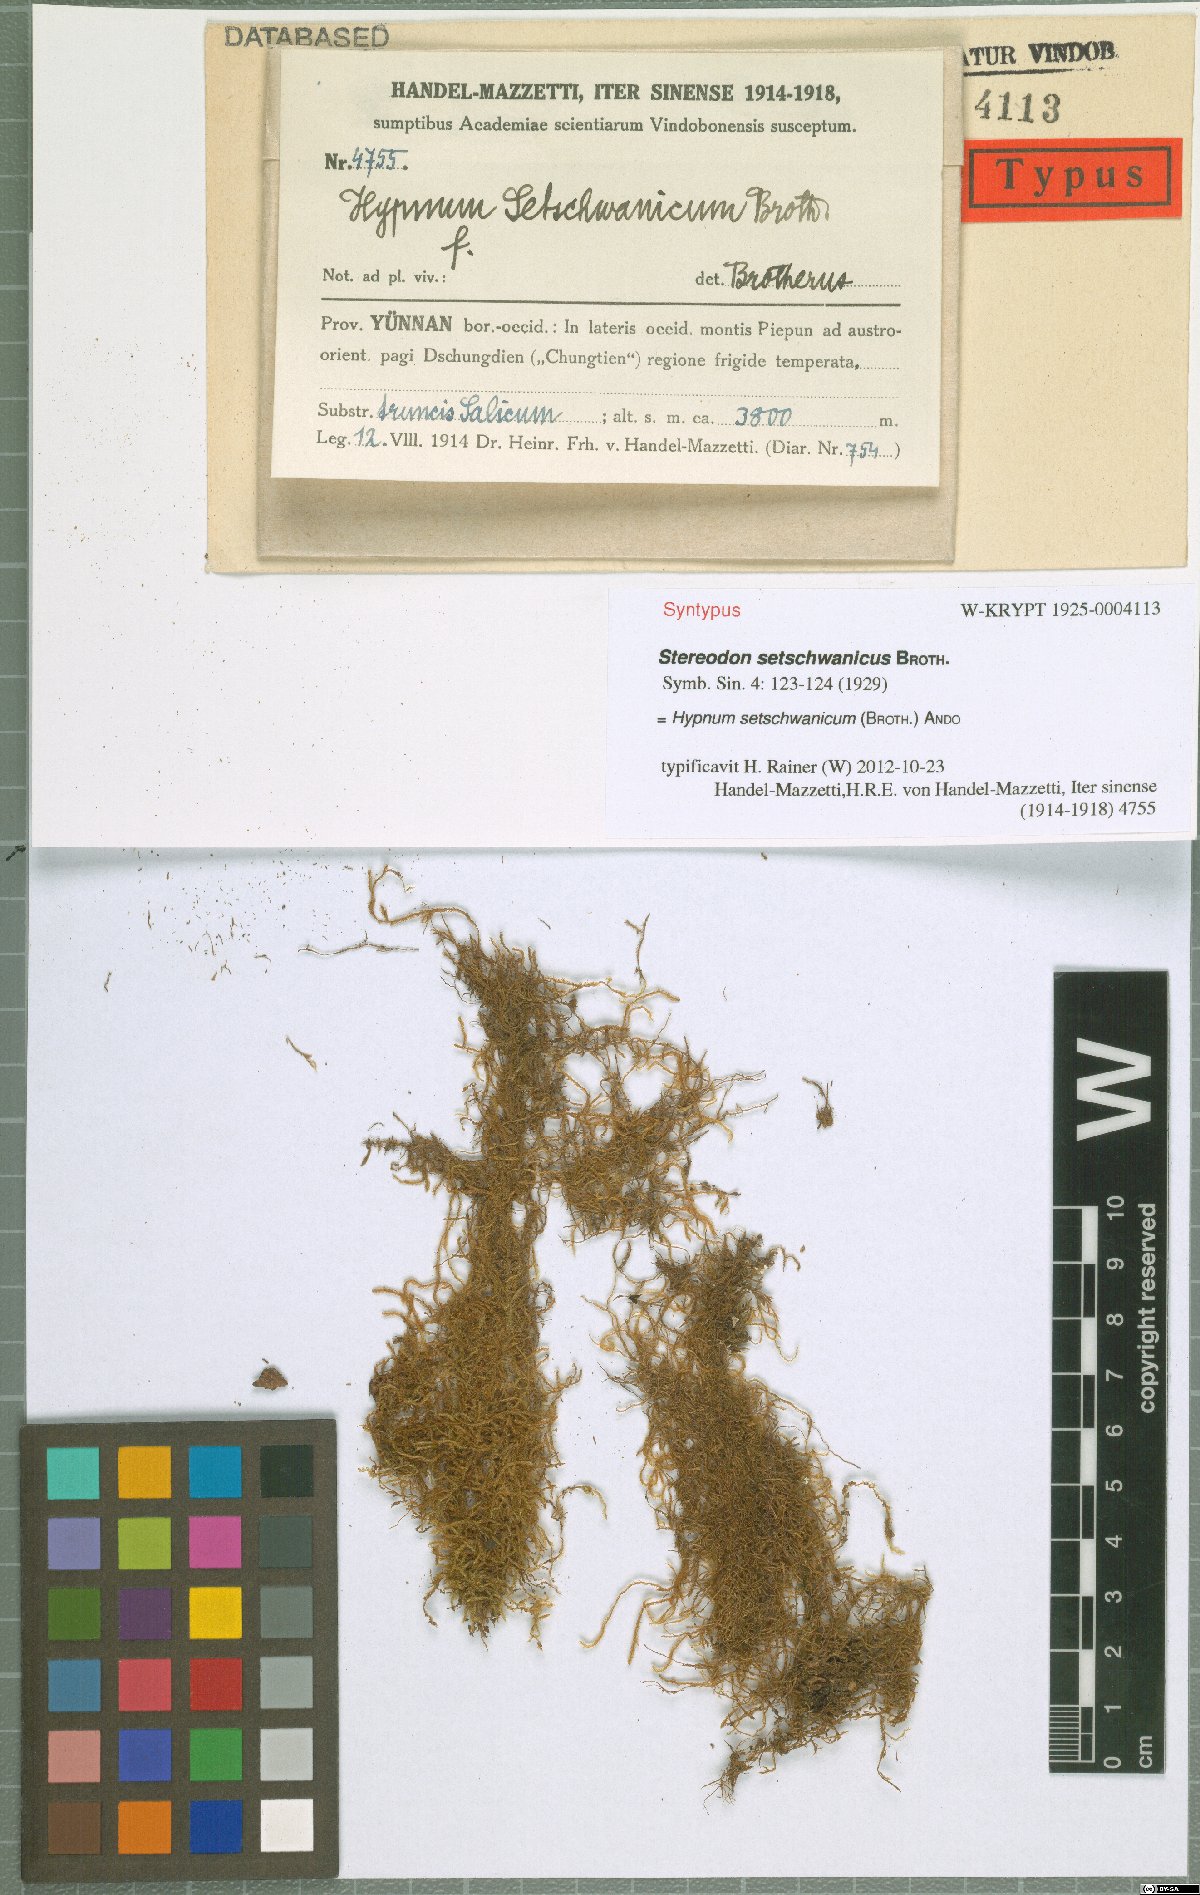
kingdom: Plantae
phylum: Bryophyta
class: Bryopsida
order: Hypnales
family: Hypnaceae
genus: Hypnum
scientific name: Hypnum setschwanicum
